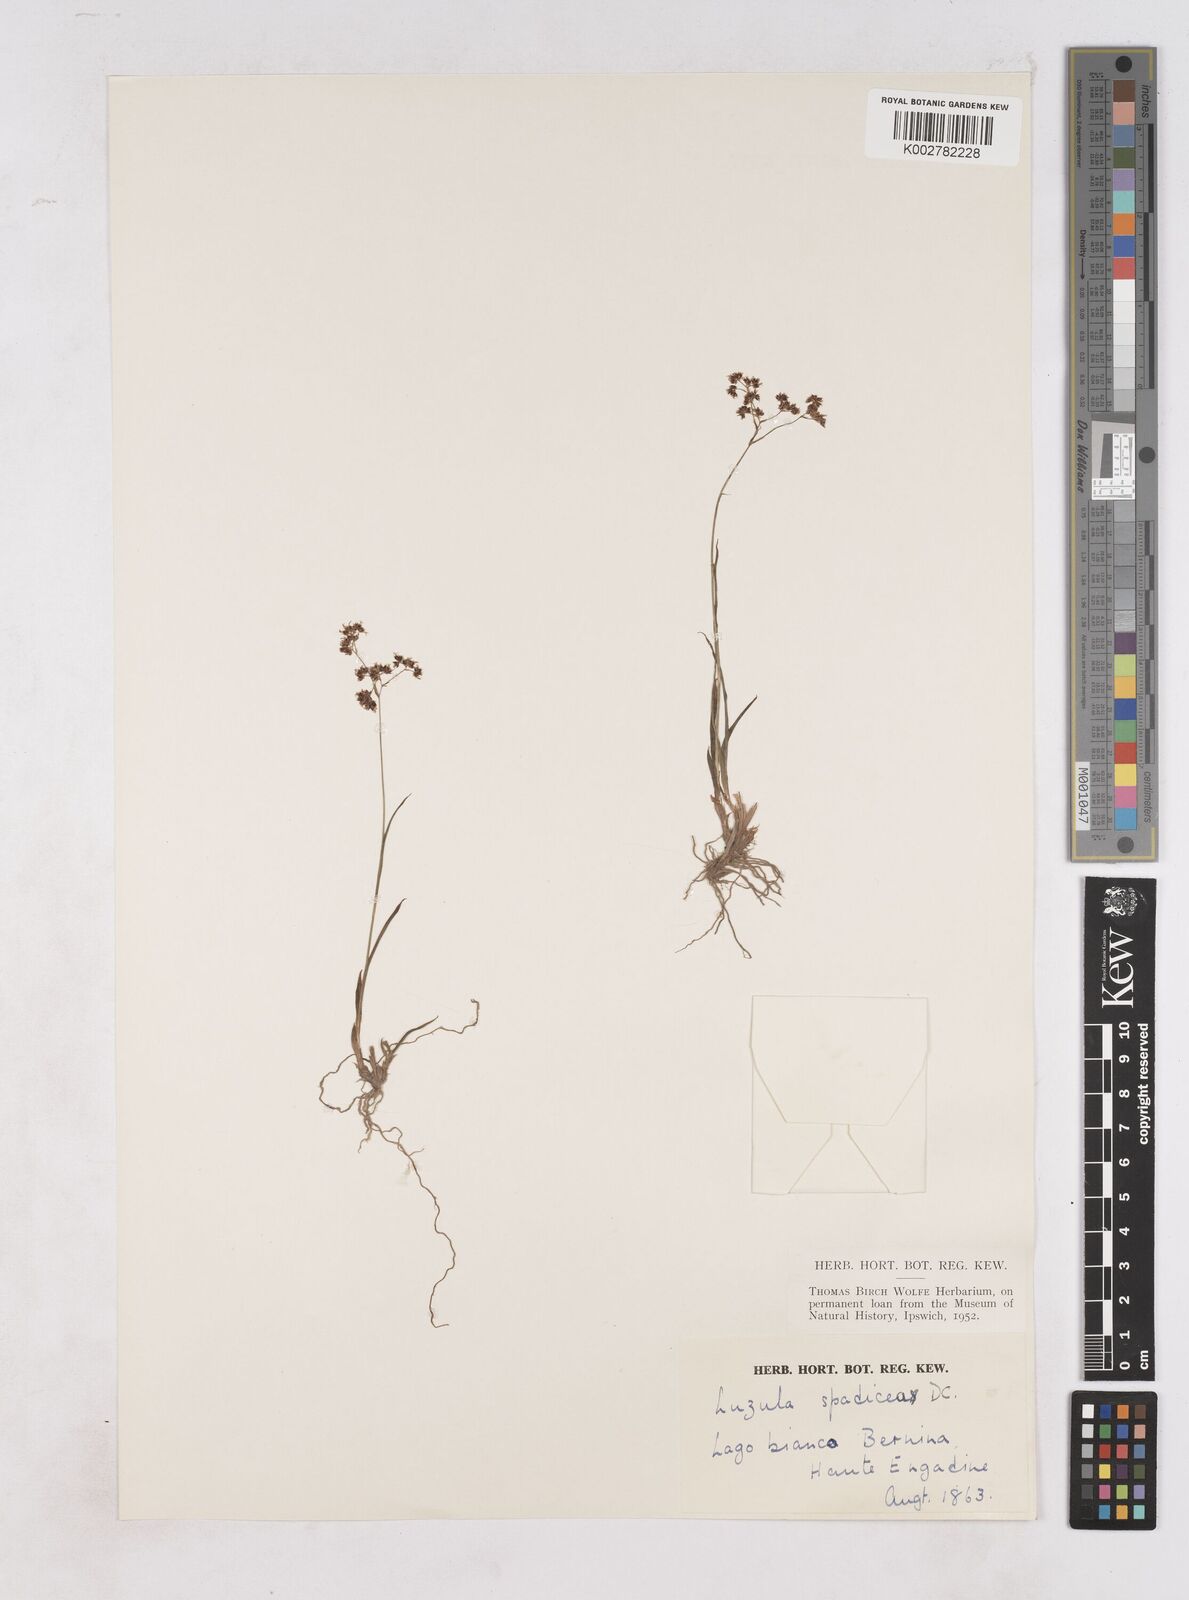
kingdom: Plantae
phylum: Tracheophyta
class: Liliopsida
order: Poales
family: Juncaceae
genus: Luzula
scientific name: Luzula alpinopilosa
